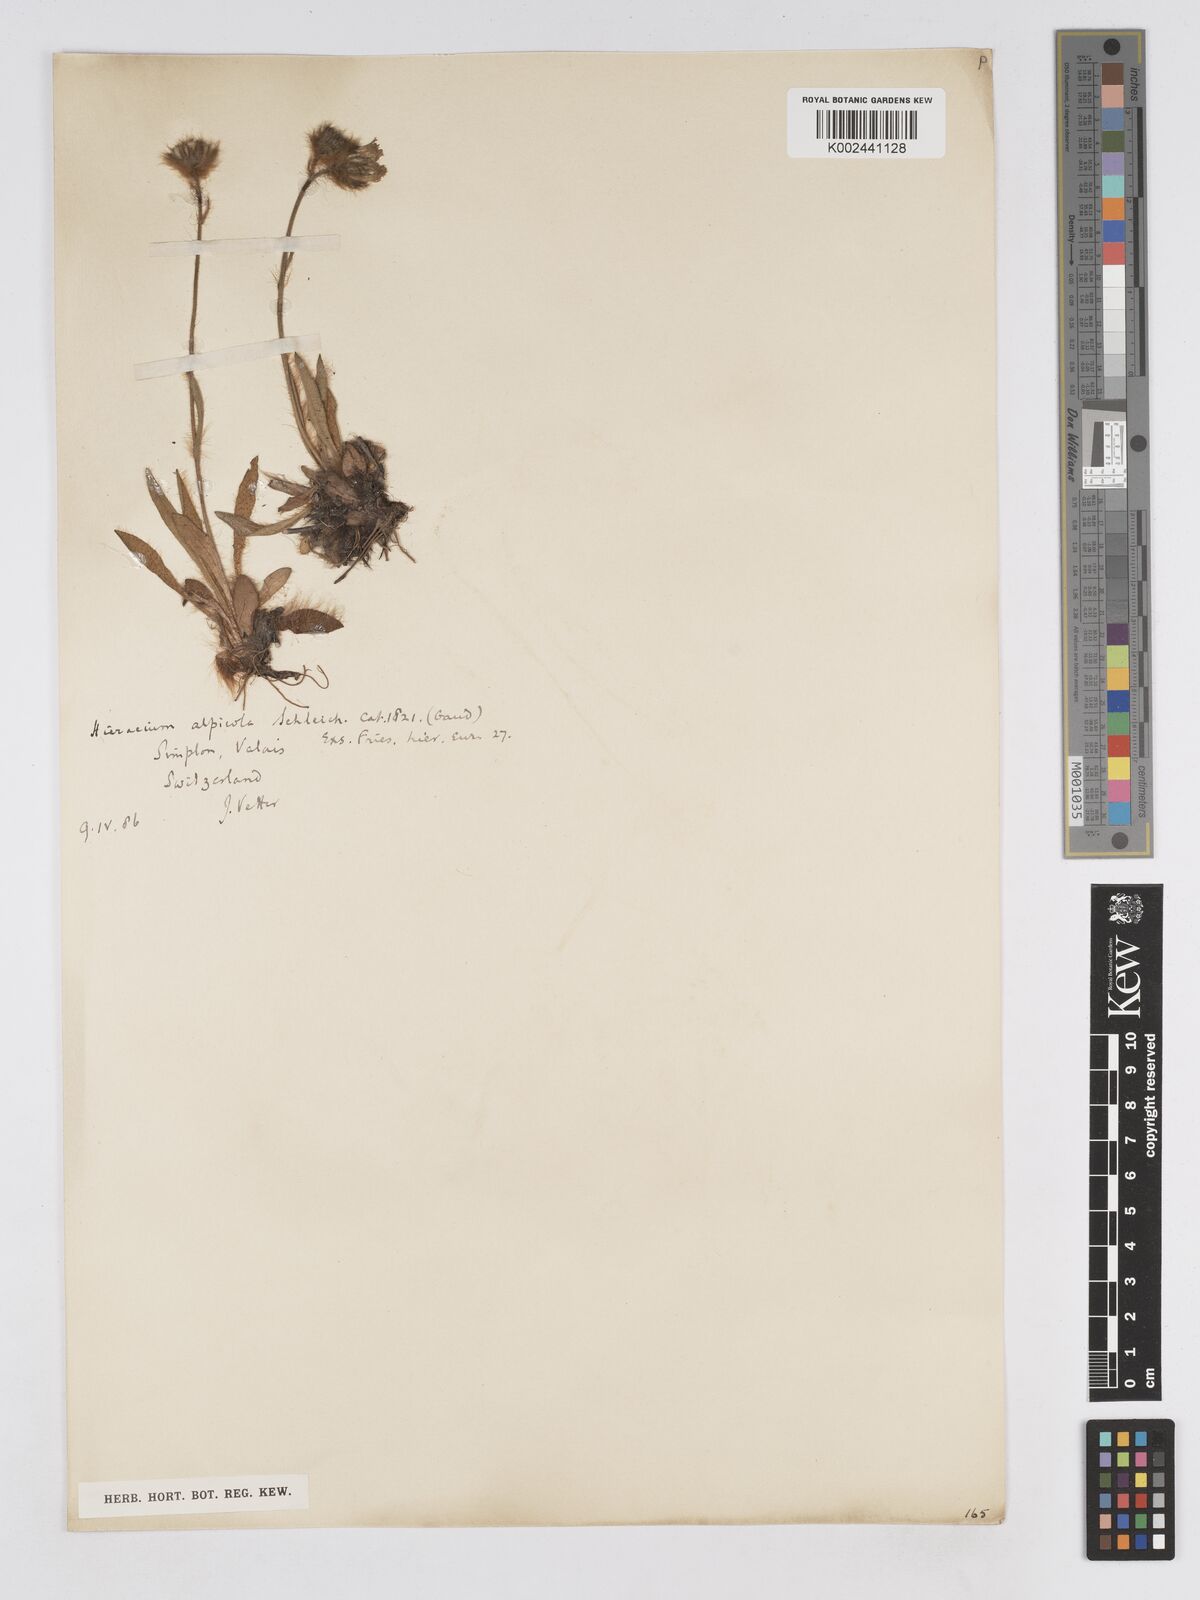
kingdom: Plantae
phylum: Tracheophyta
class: Magnoliopsida
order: Asterales
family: Asteraceae
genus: Pilosella
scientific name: Pilosella subrubens
